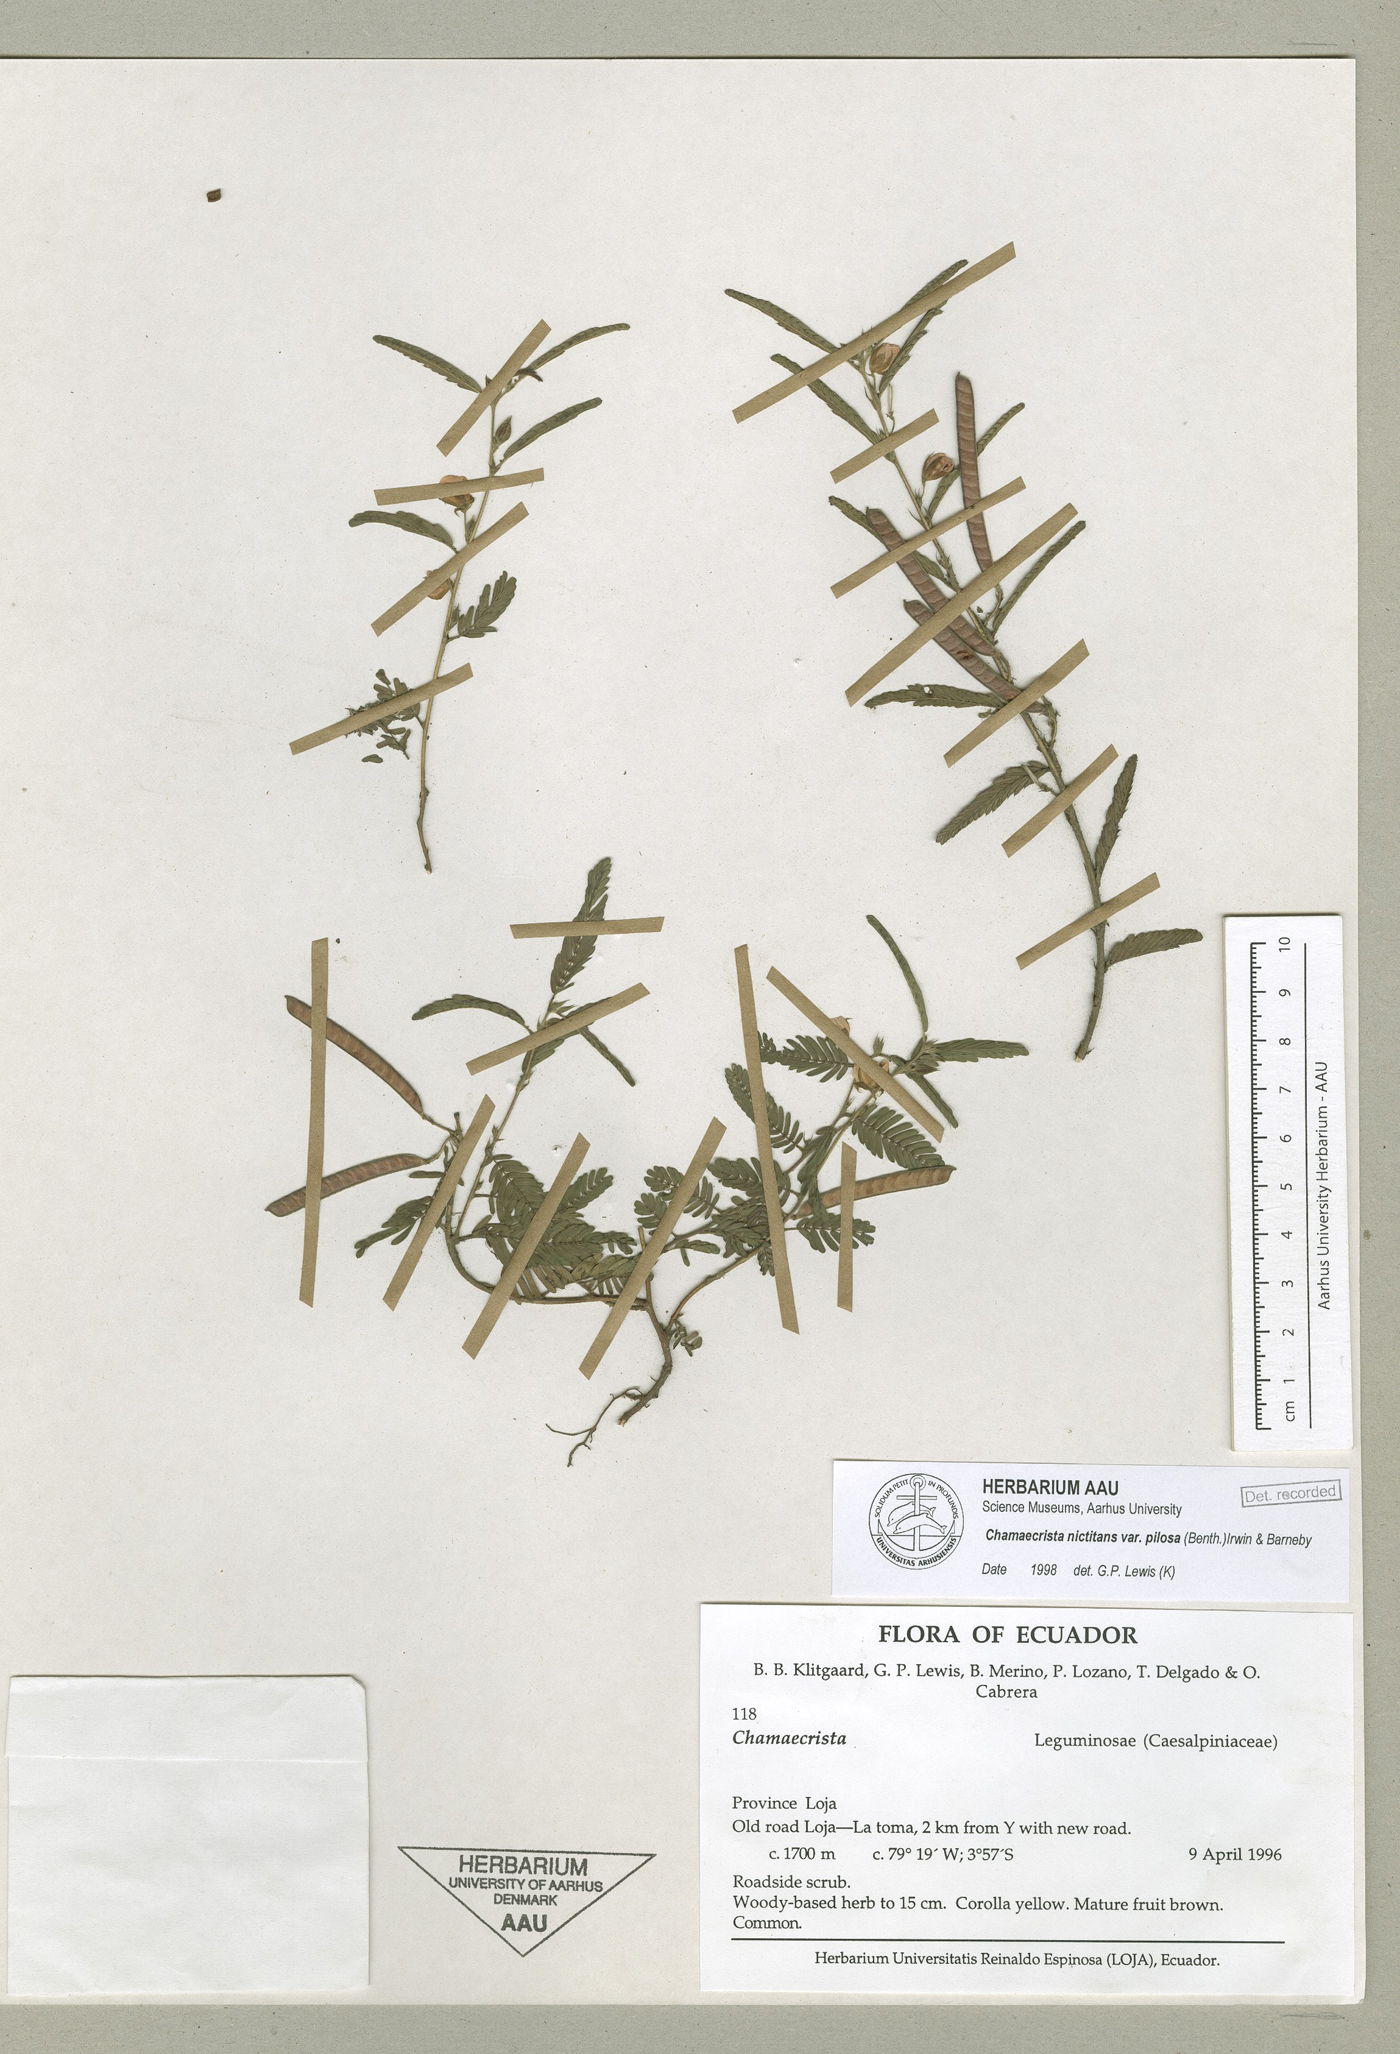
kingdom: Plantae
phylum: Tracheophyta
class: Magnoliopsida
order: Fabales
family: Fabaceae
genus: Chamaecrista
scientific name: Chamaecrista nictitans
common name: Sensitive cassia
